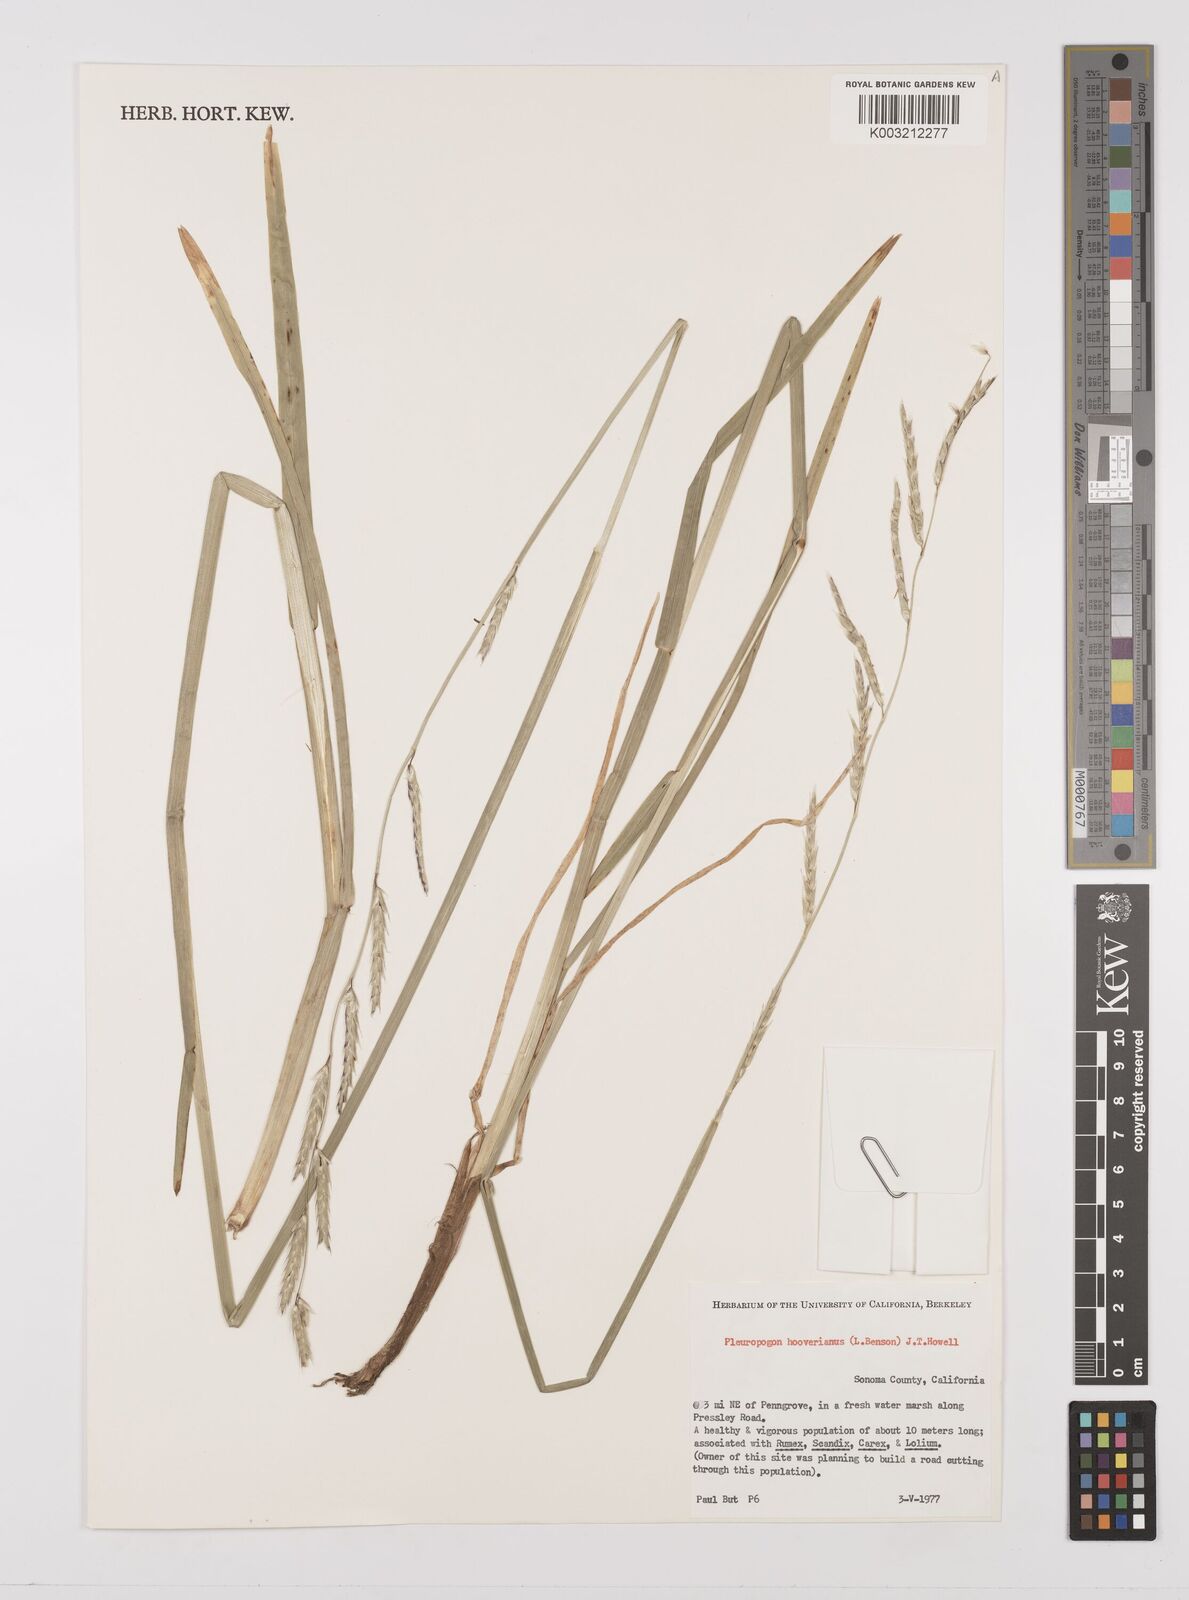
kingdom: Plantae
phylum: Tracheophyta
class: Liliopsida
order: Poales
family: Poaceae
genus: Pleuropogon
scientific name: Pleuropogon hooverianus
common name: North coast semaphore grass
